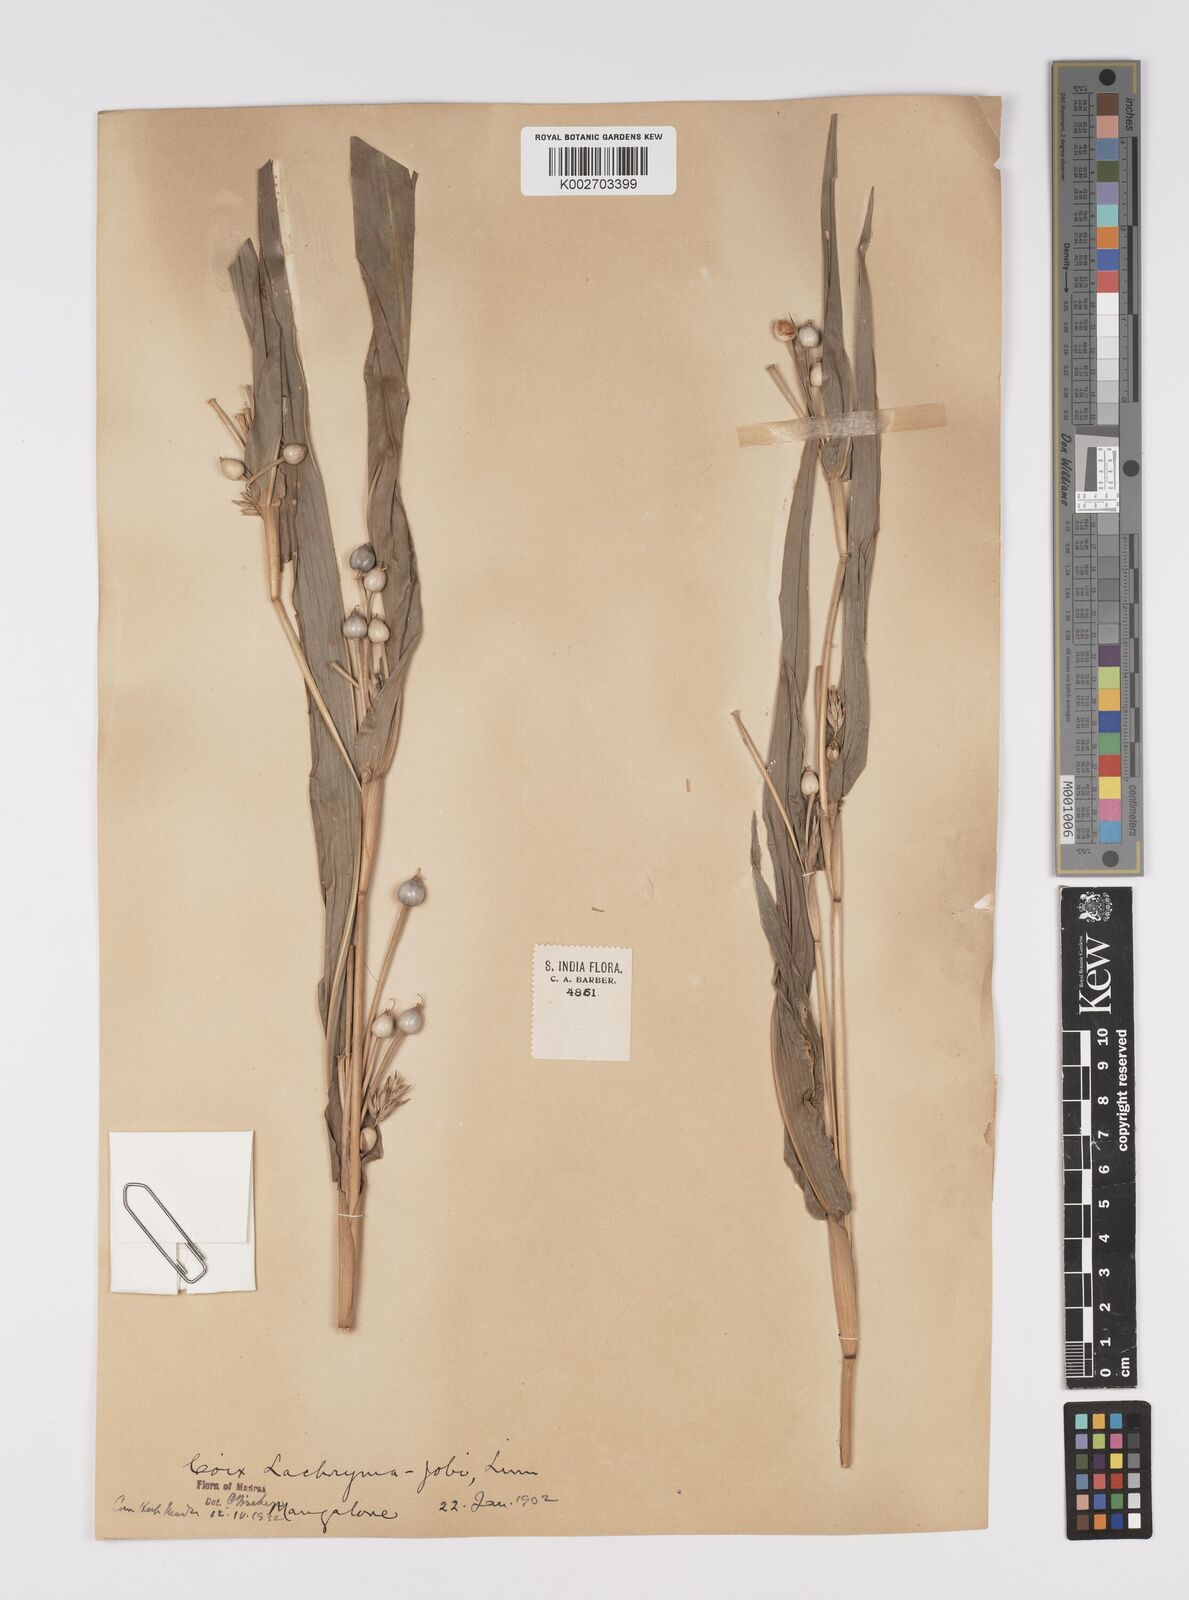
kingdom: Plantae
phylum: Tracheophyta
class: Liliopsida
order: Poales
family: Poaceae
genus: Coix
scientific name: Coix lacryma-jobi
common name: Job's tears
